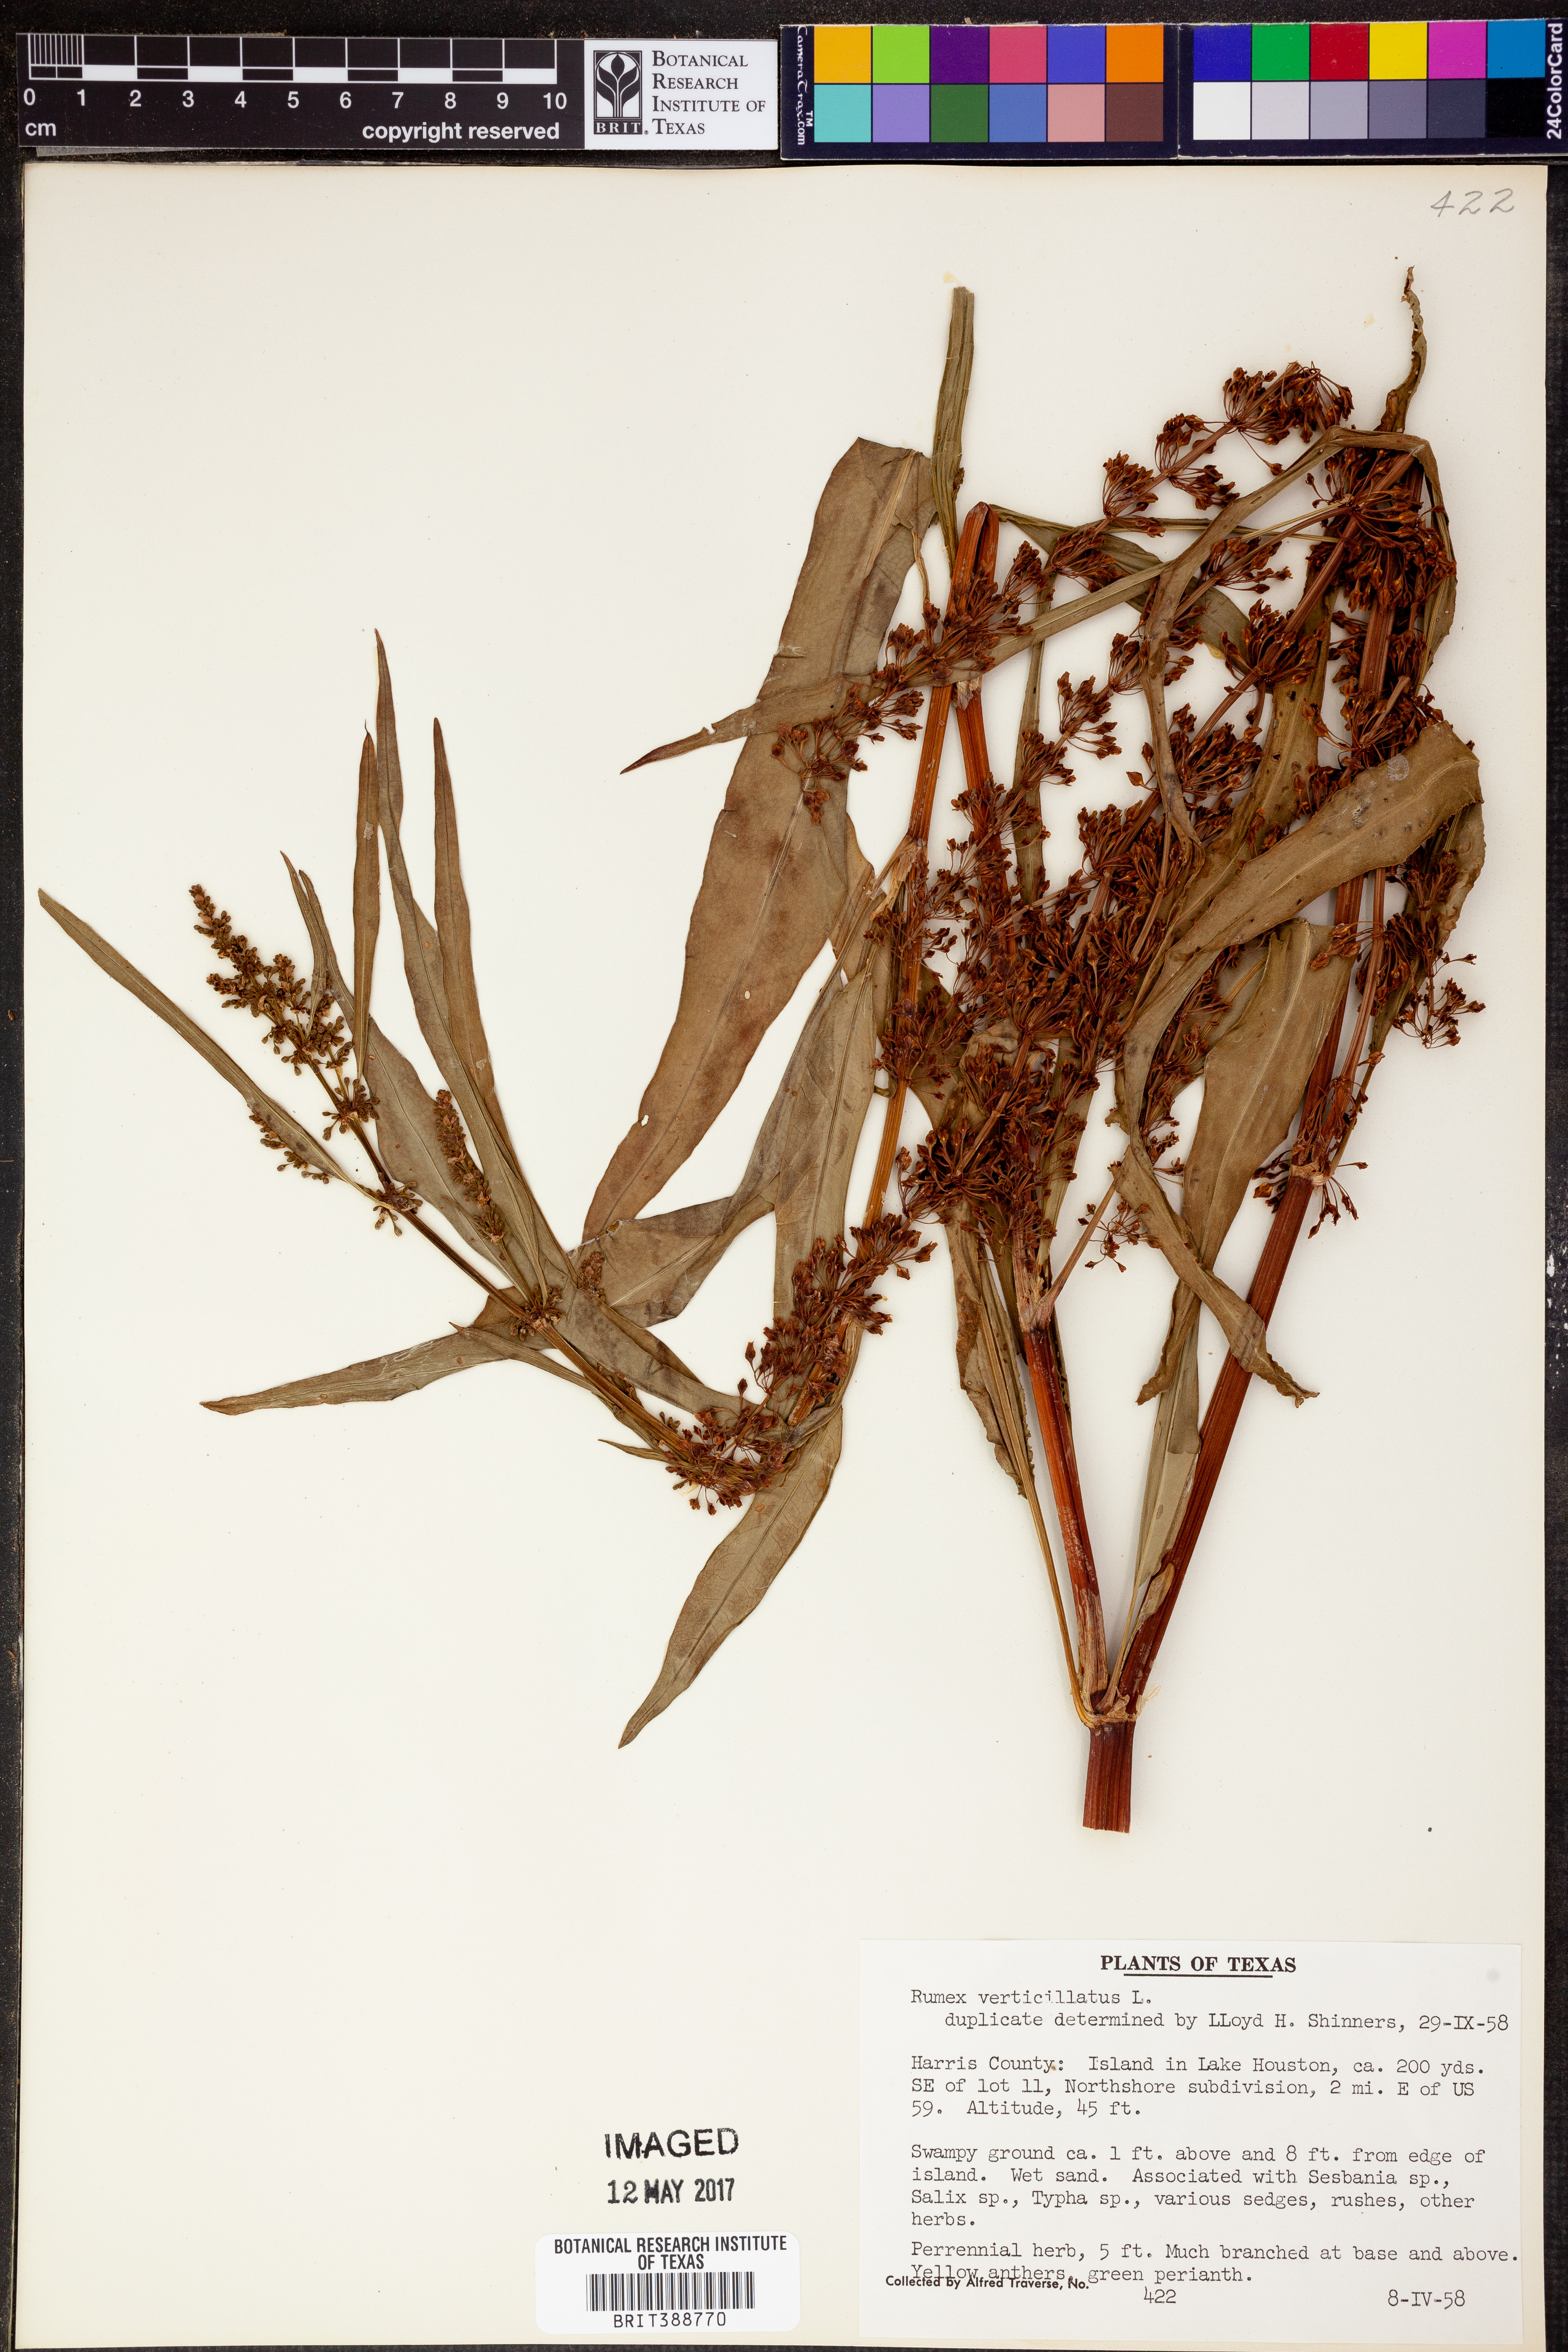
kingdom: Plantae
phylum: Tracheophyta
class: Magnoliopsida
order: Caryophyllales
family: Polygonaceae
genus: Rumex
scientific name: Rumex verticillatus
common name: Swamp dock
